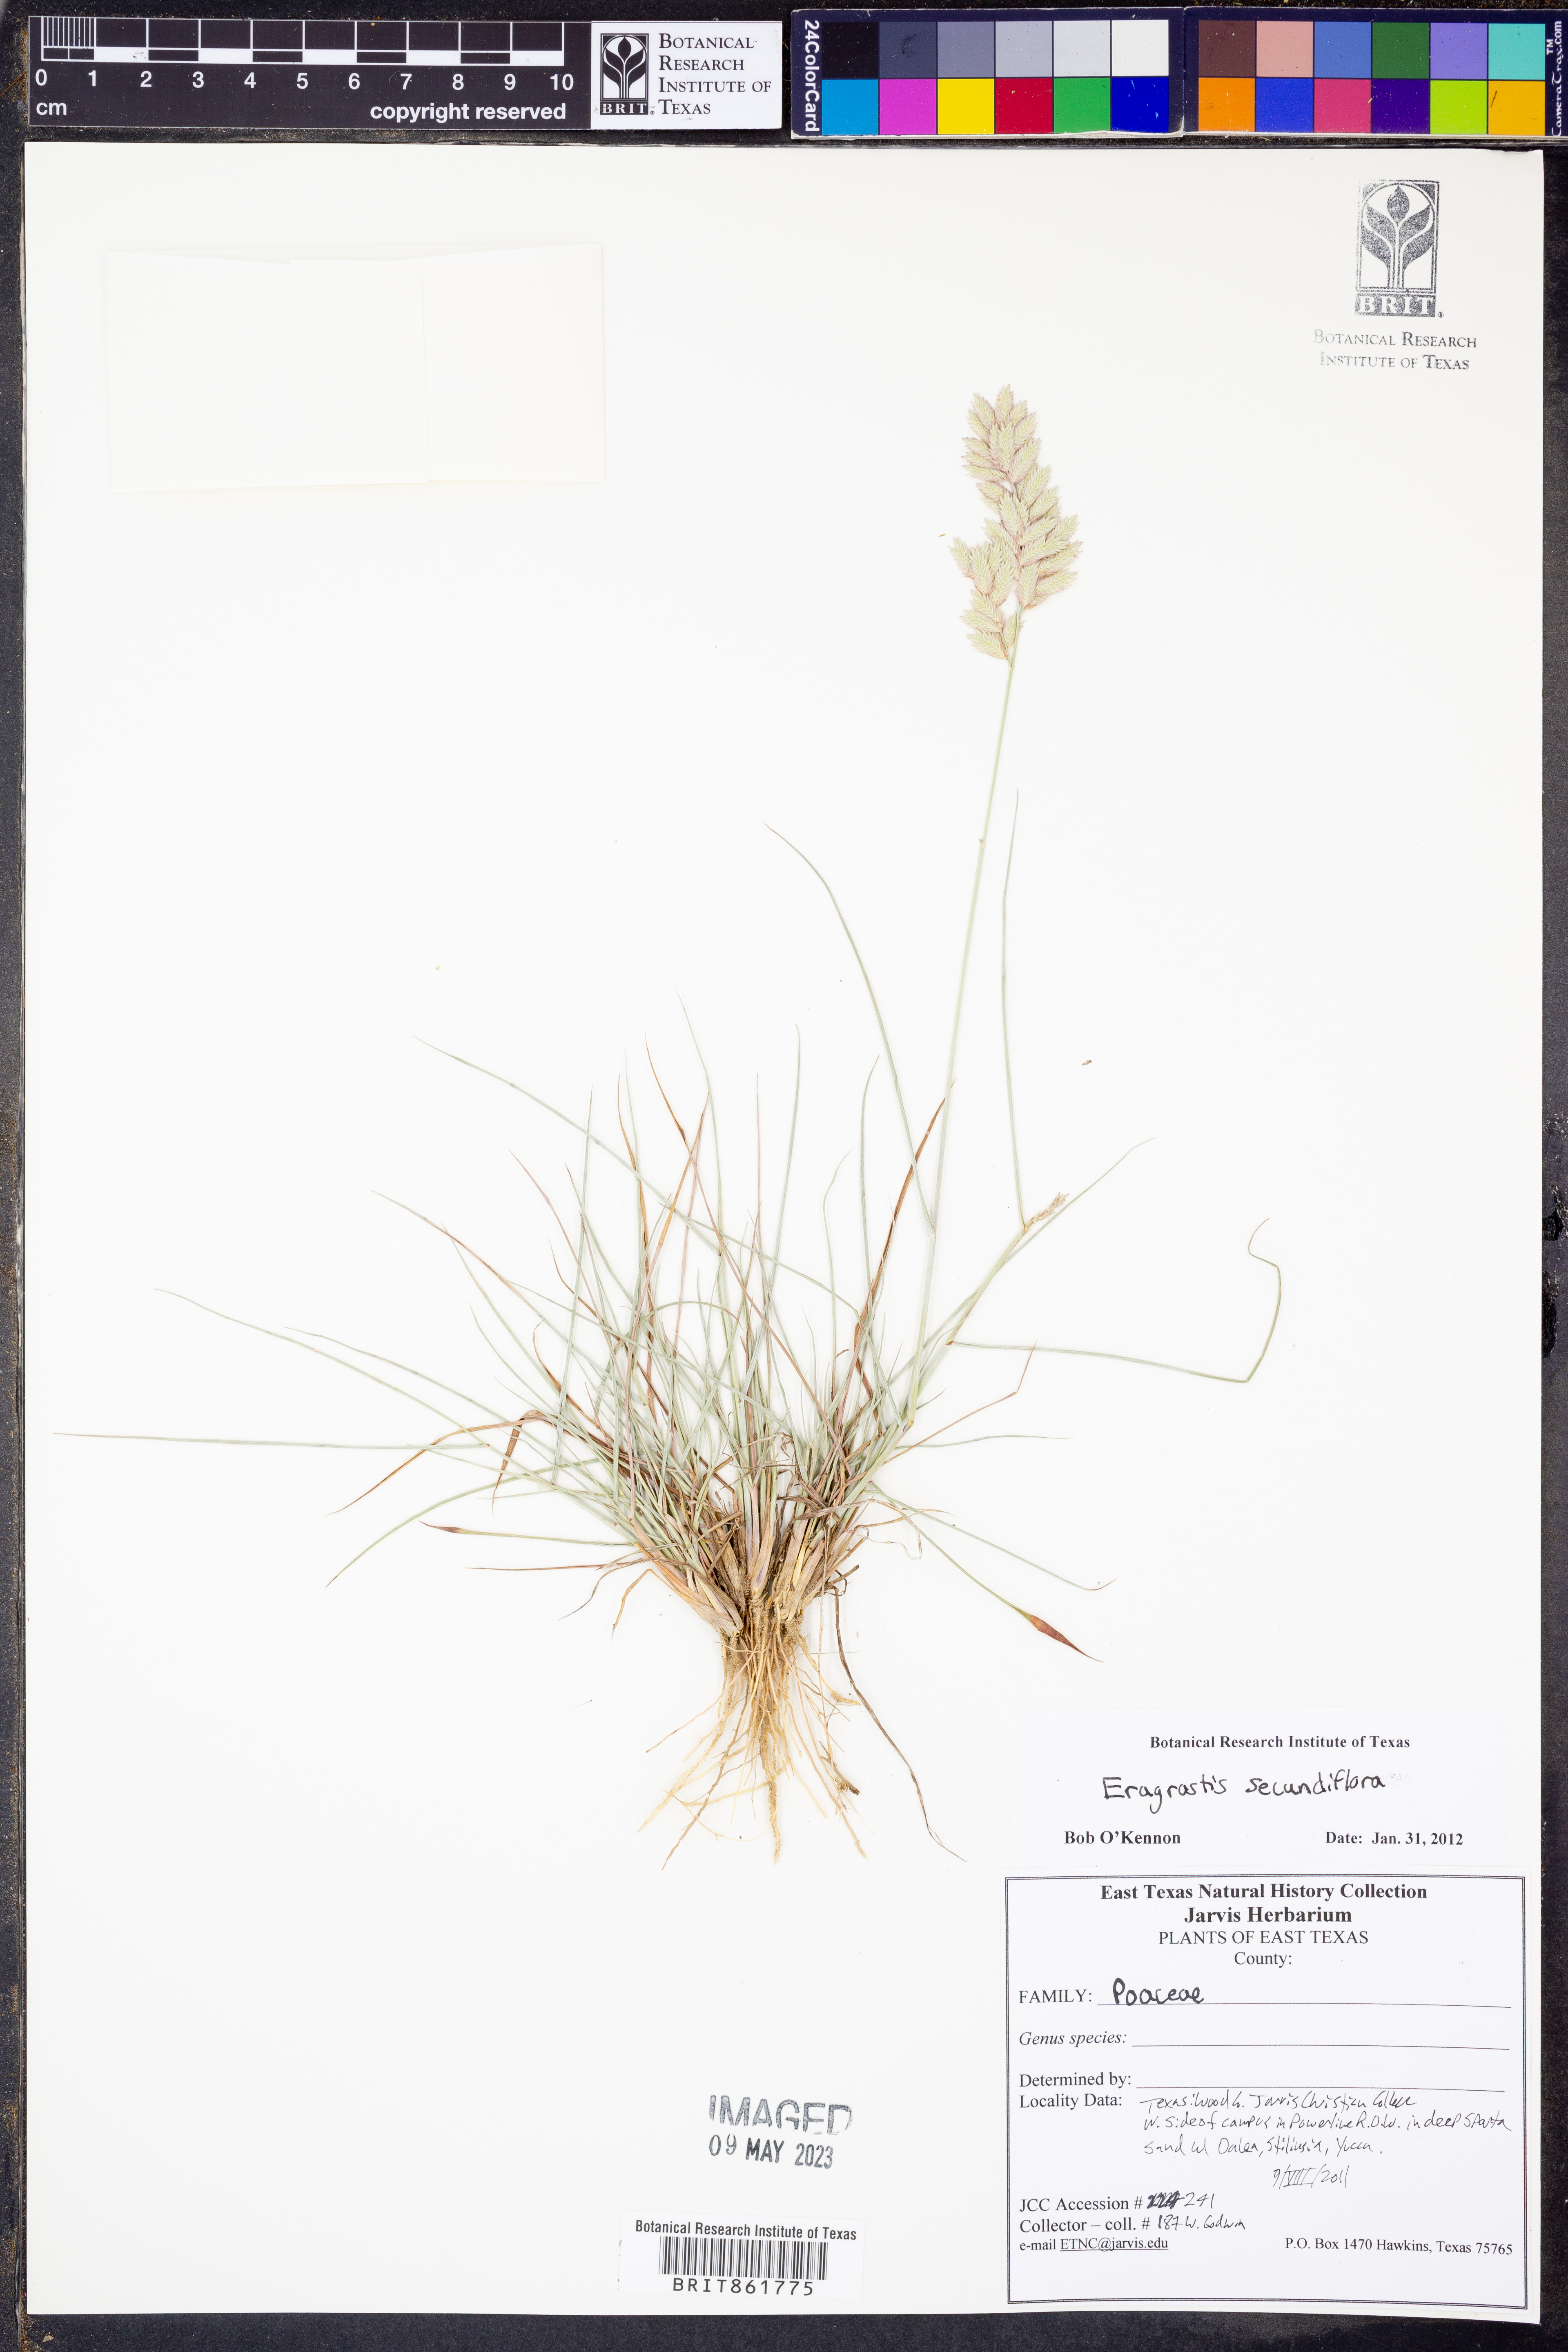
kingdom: Plantae
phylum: Tracheophyta
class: Liliopsida
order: Poales
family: Poaceae
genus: Eragrostis
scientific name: Eragrostis secundiflora
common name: Red love grass
